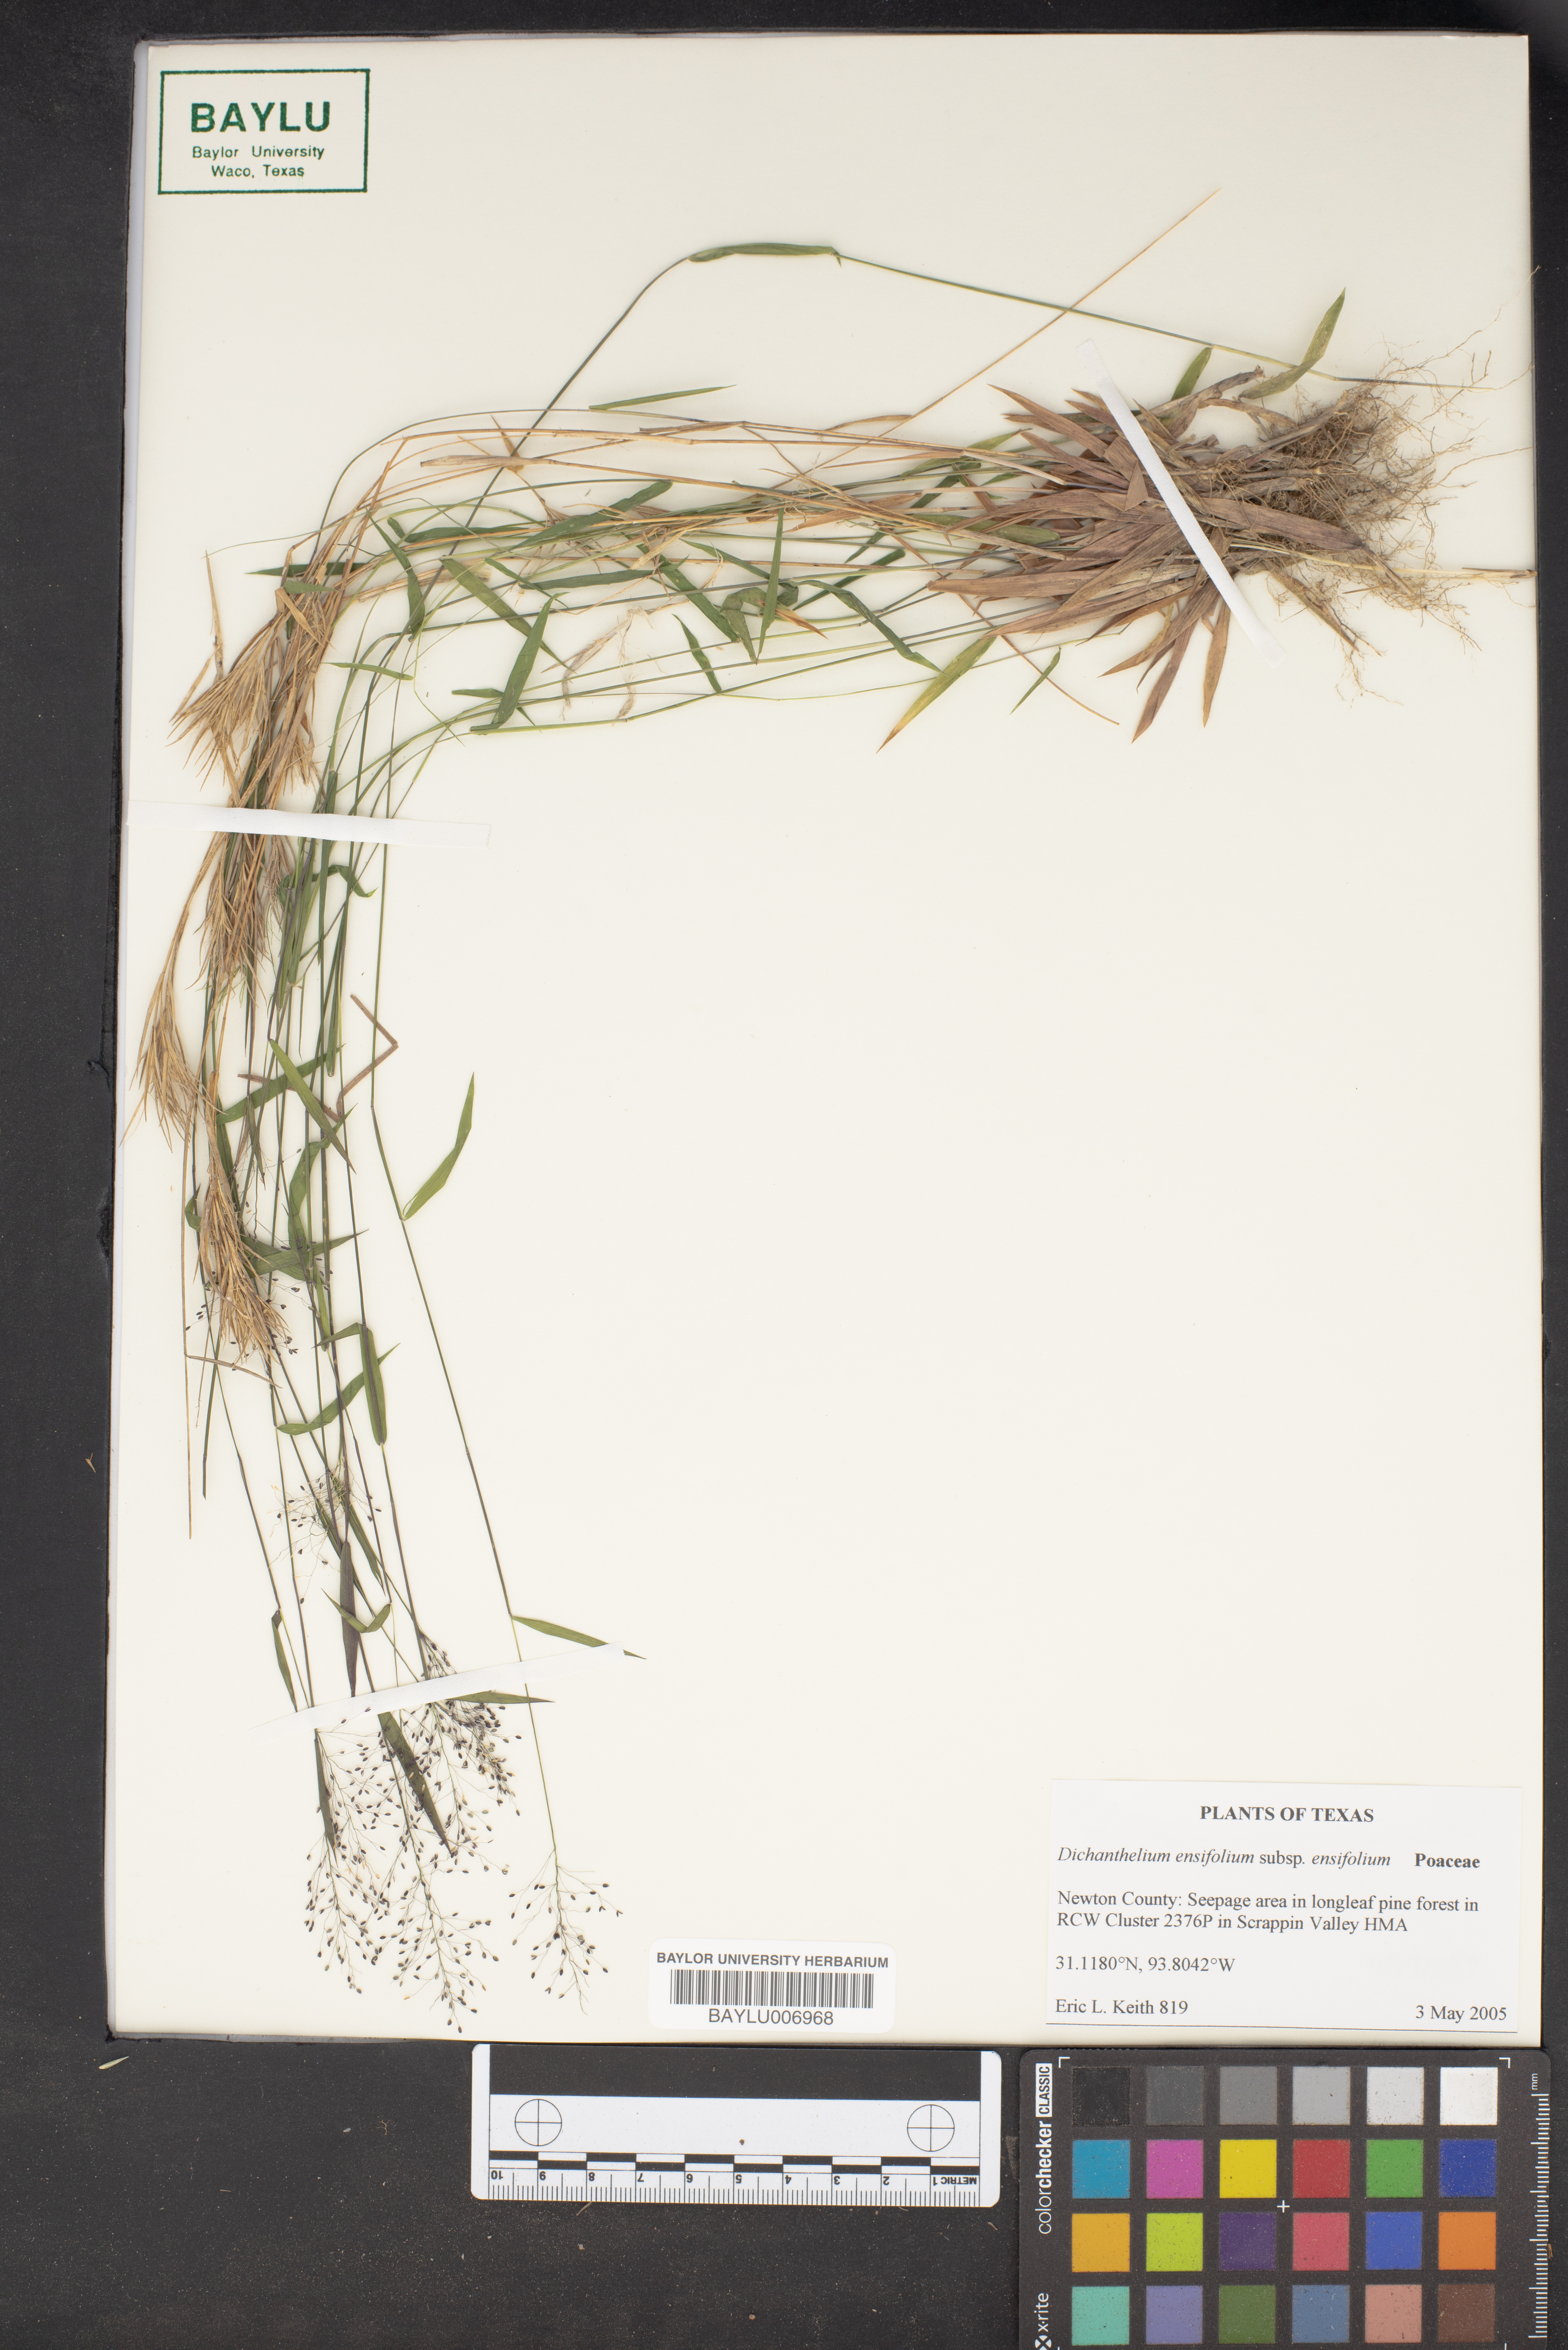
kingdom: Plantae
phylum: Tracheophyta
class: Liliopsida
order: Poales
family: Poaceae
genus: Dichanthelium
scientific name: Dichanthelium ensifolium
